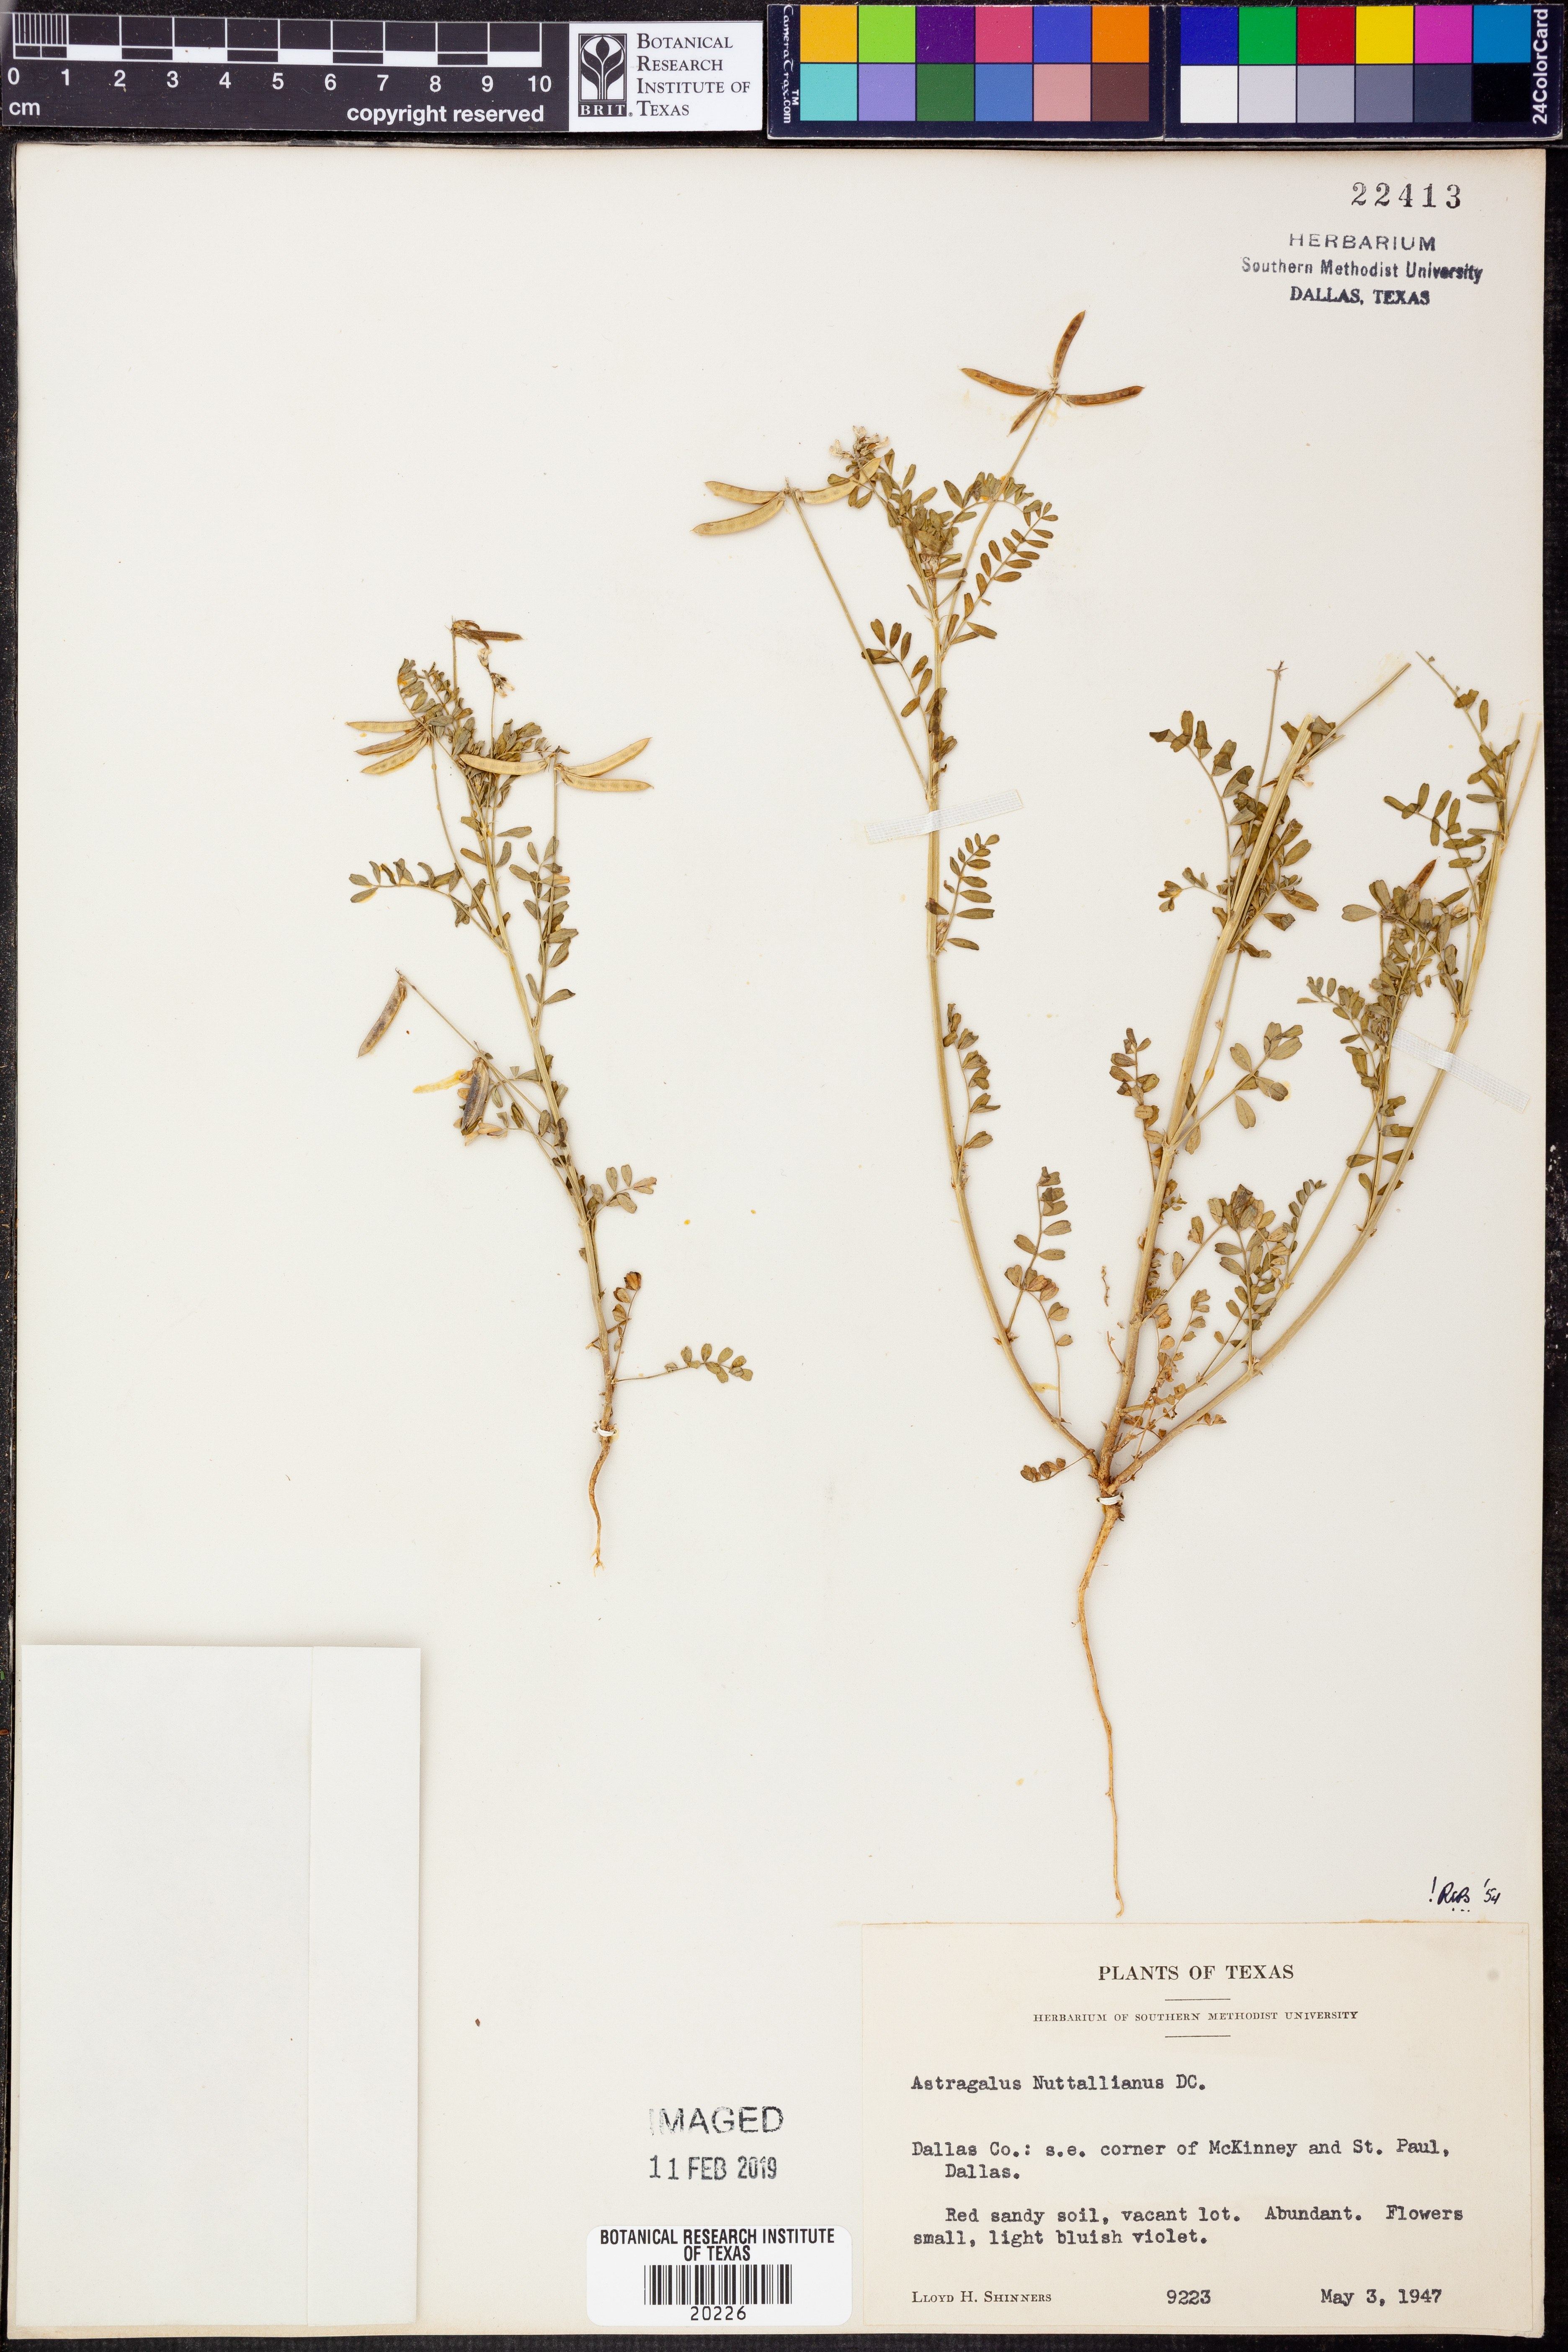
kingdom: Plantae
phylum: Tracheophyta
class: Magnoliopsida
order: Fabales
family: Fabaceae
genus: Astragalus
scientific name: Astragalus nuttallianus
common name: Smallflowered milkvetch
